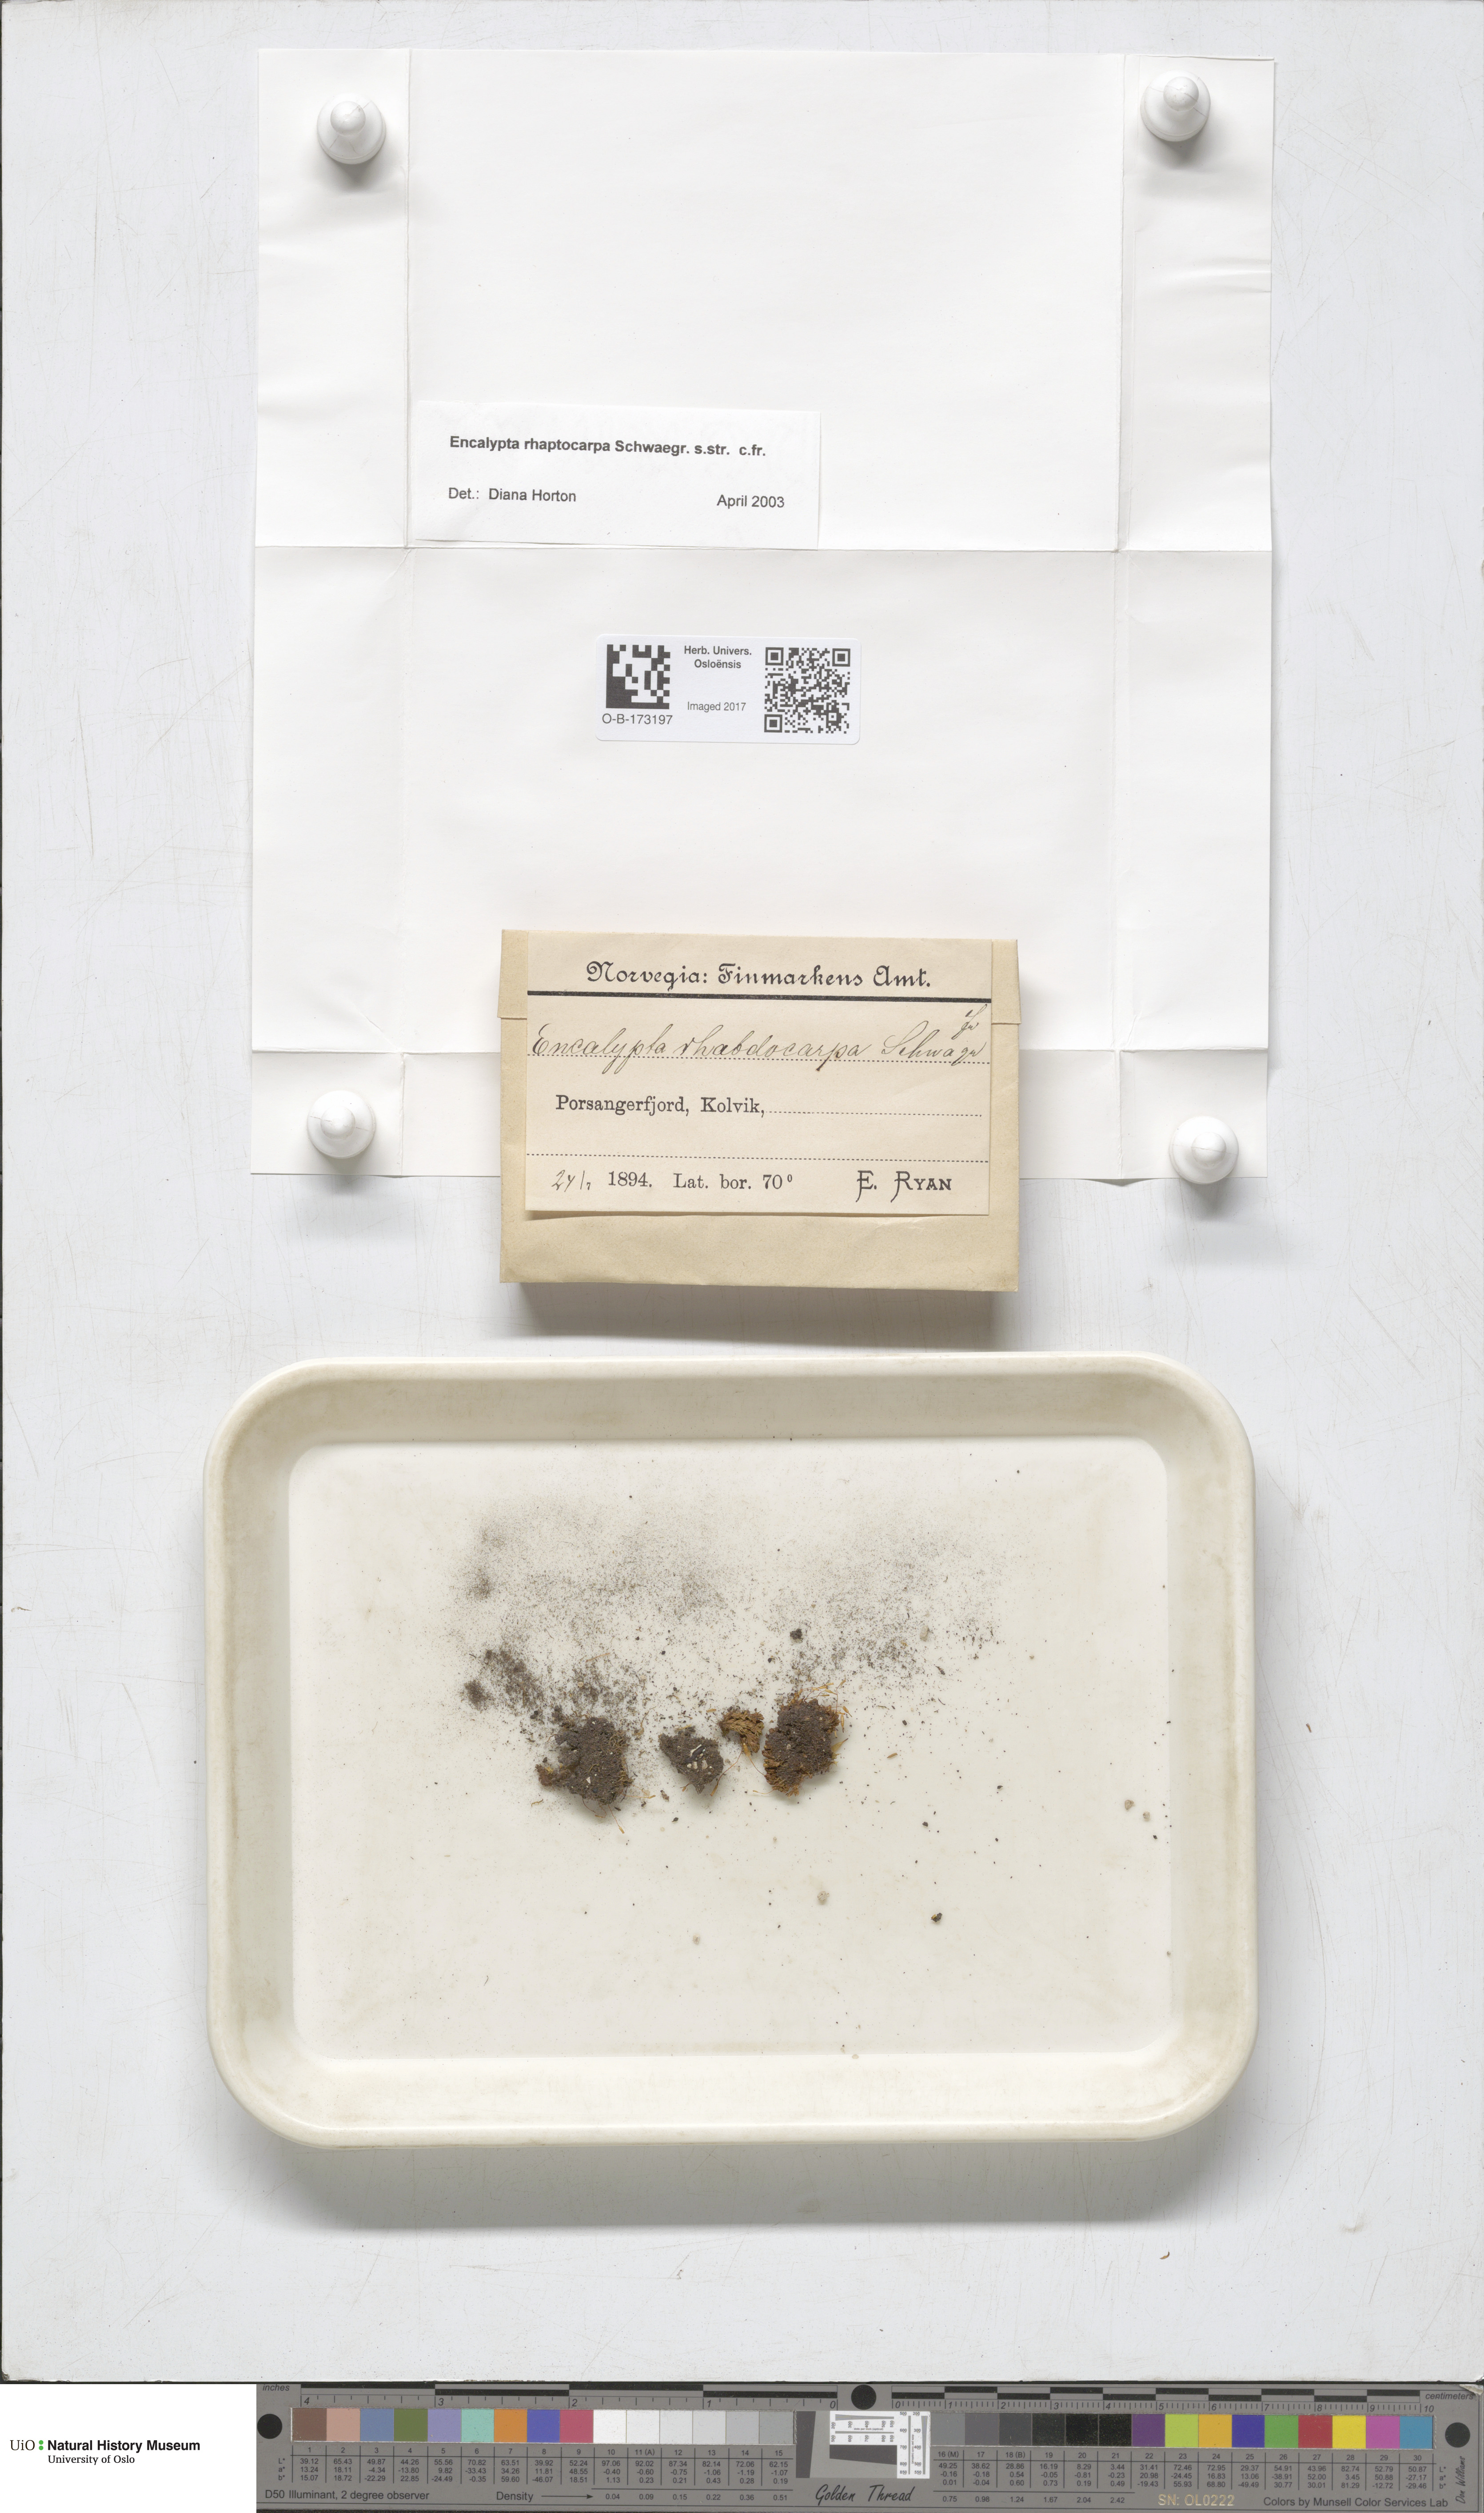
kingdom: Plantae
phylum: Bryophyta
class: Bryopsida
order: Encalyptales
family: Encalyptaceae
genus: Encalypta
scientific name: Encalypta rhaptocarpa
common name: Ribbed extinguisher moss
